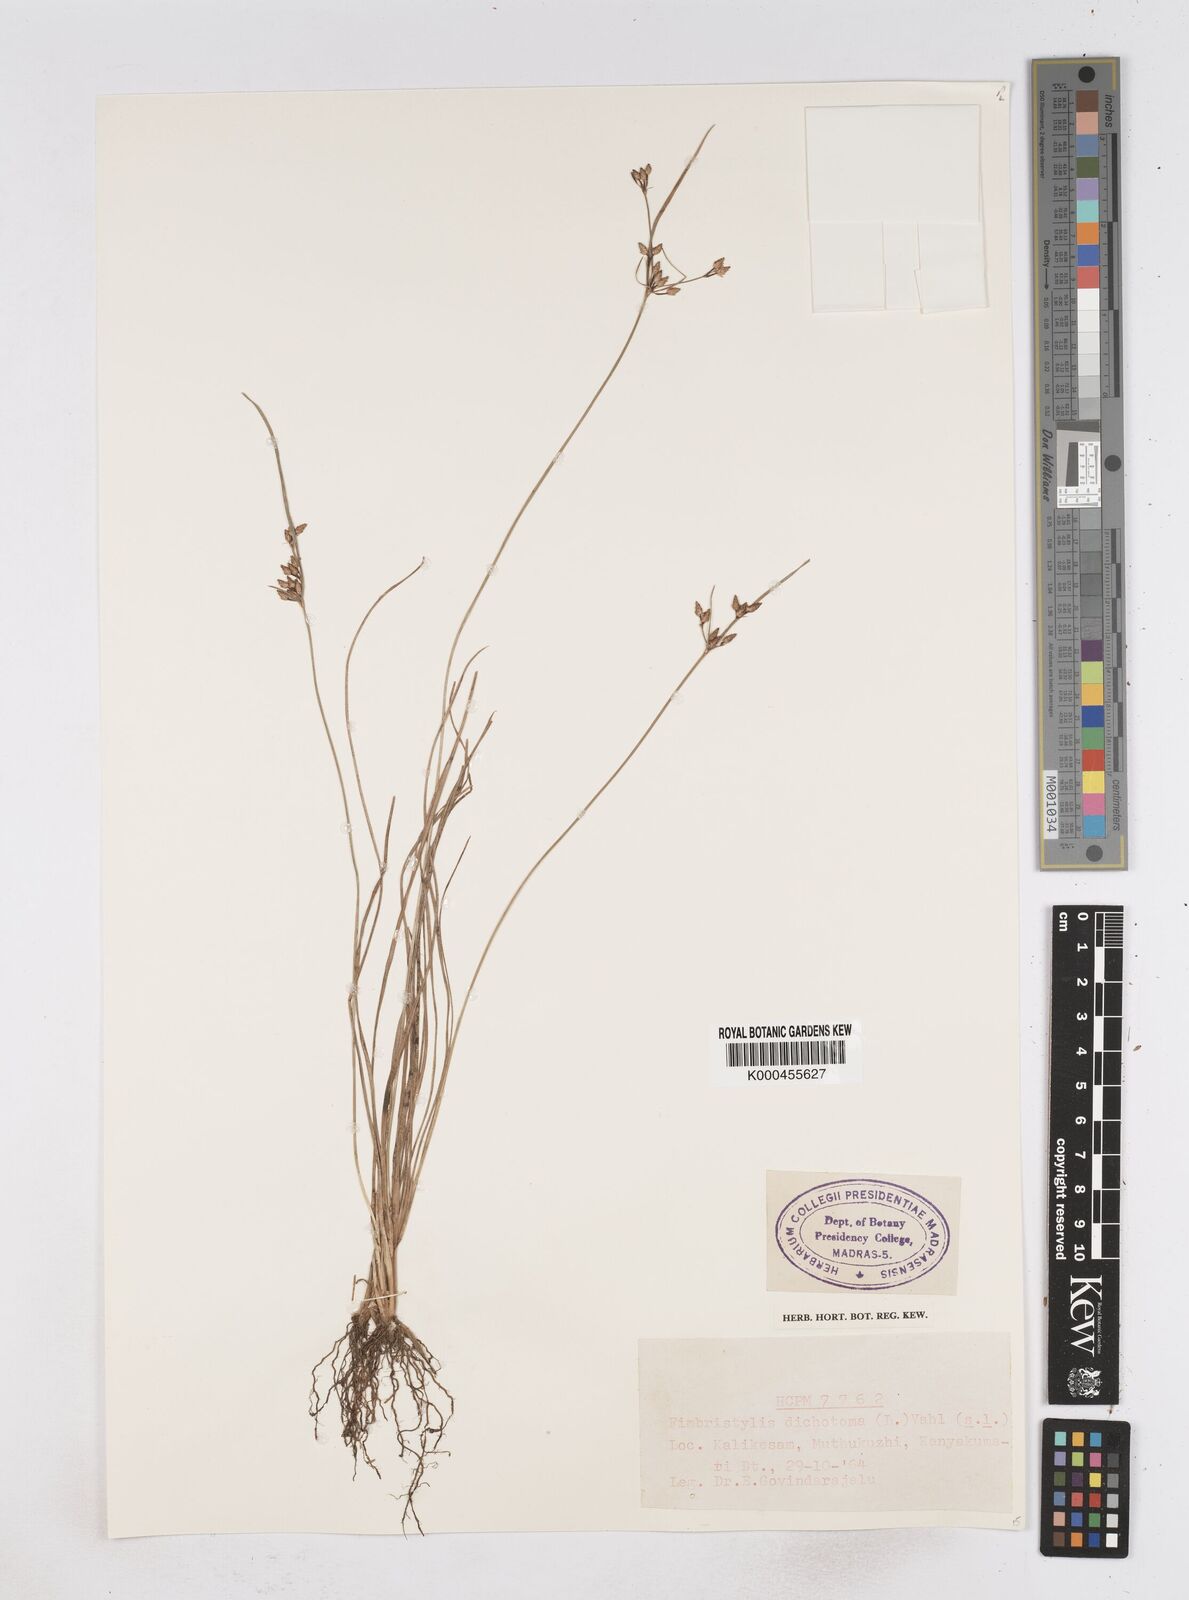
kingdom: Plantae
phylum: Tracheophyta
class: Liliopsida
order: Poales
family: Cyperaceae
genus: Fimbristylis
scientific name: Fimbristylis dichotoma
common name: Forked fimbry
